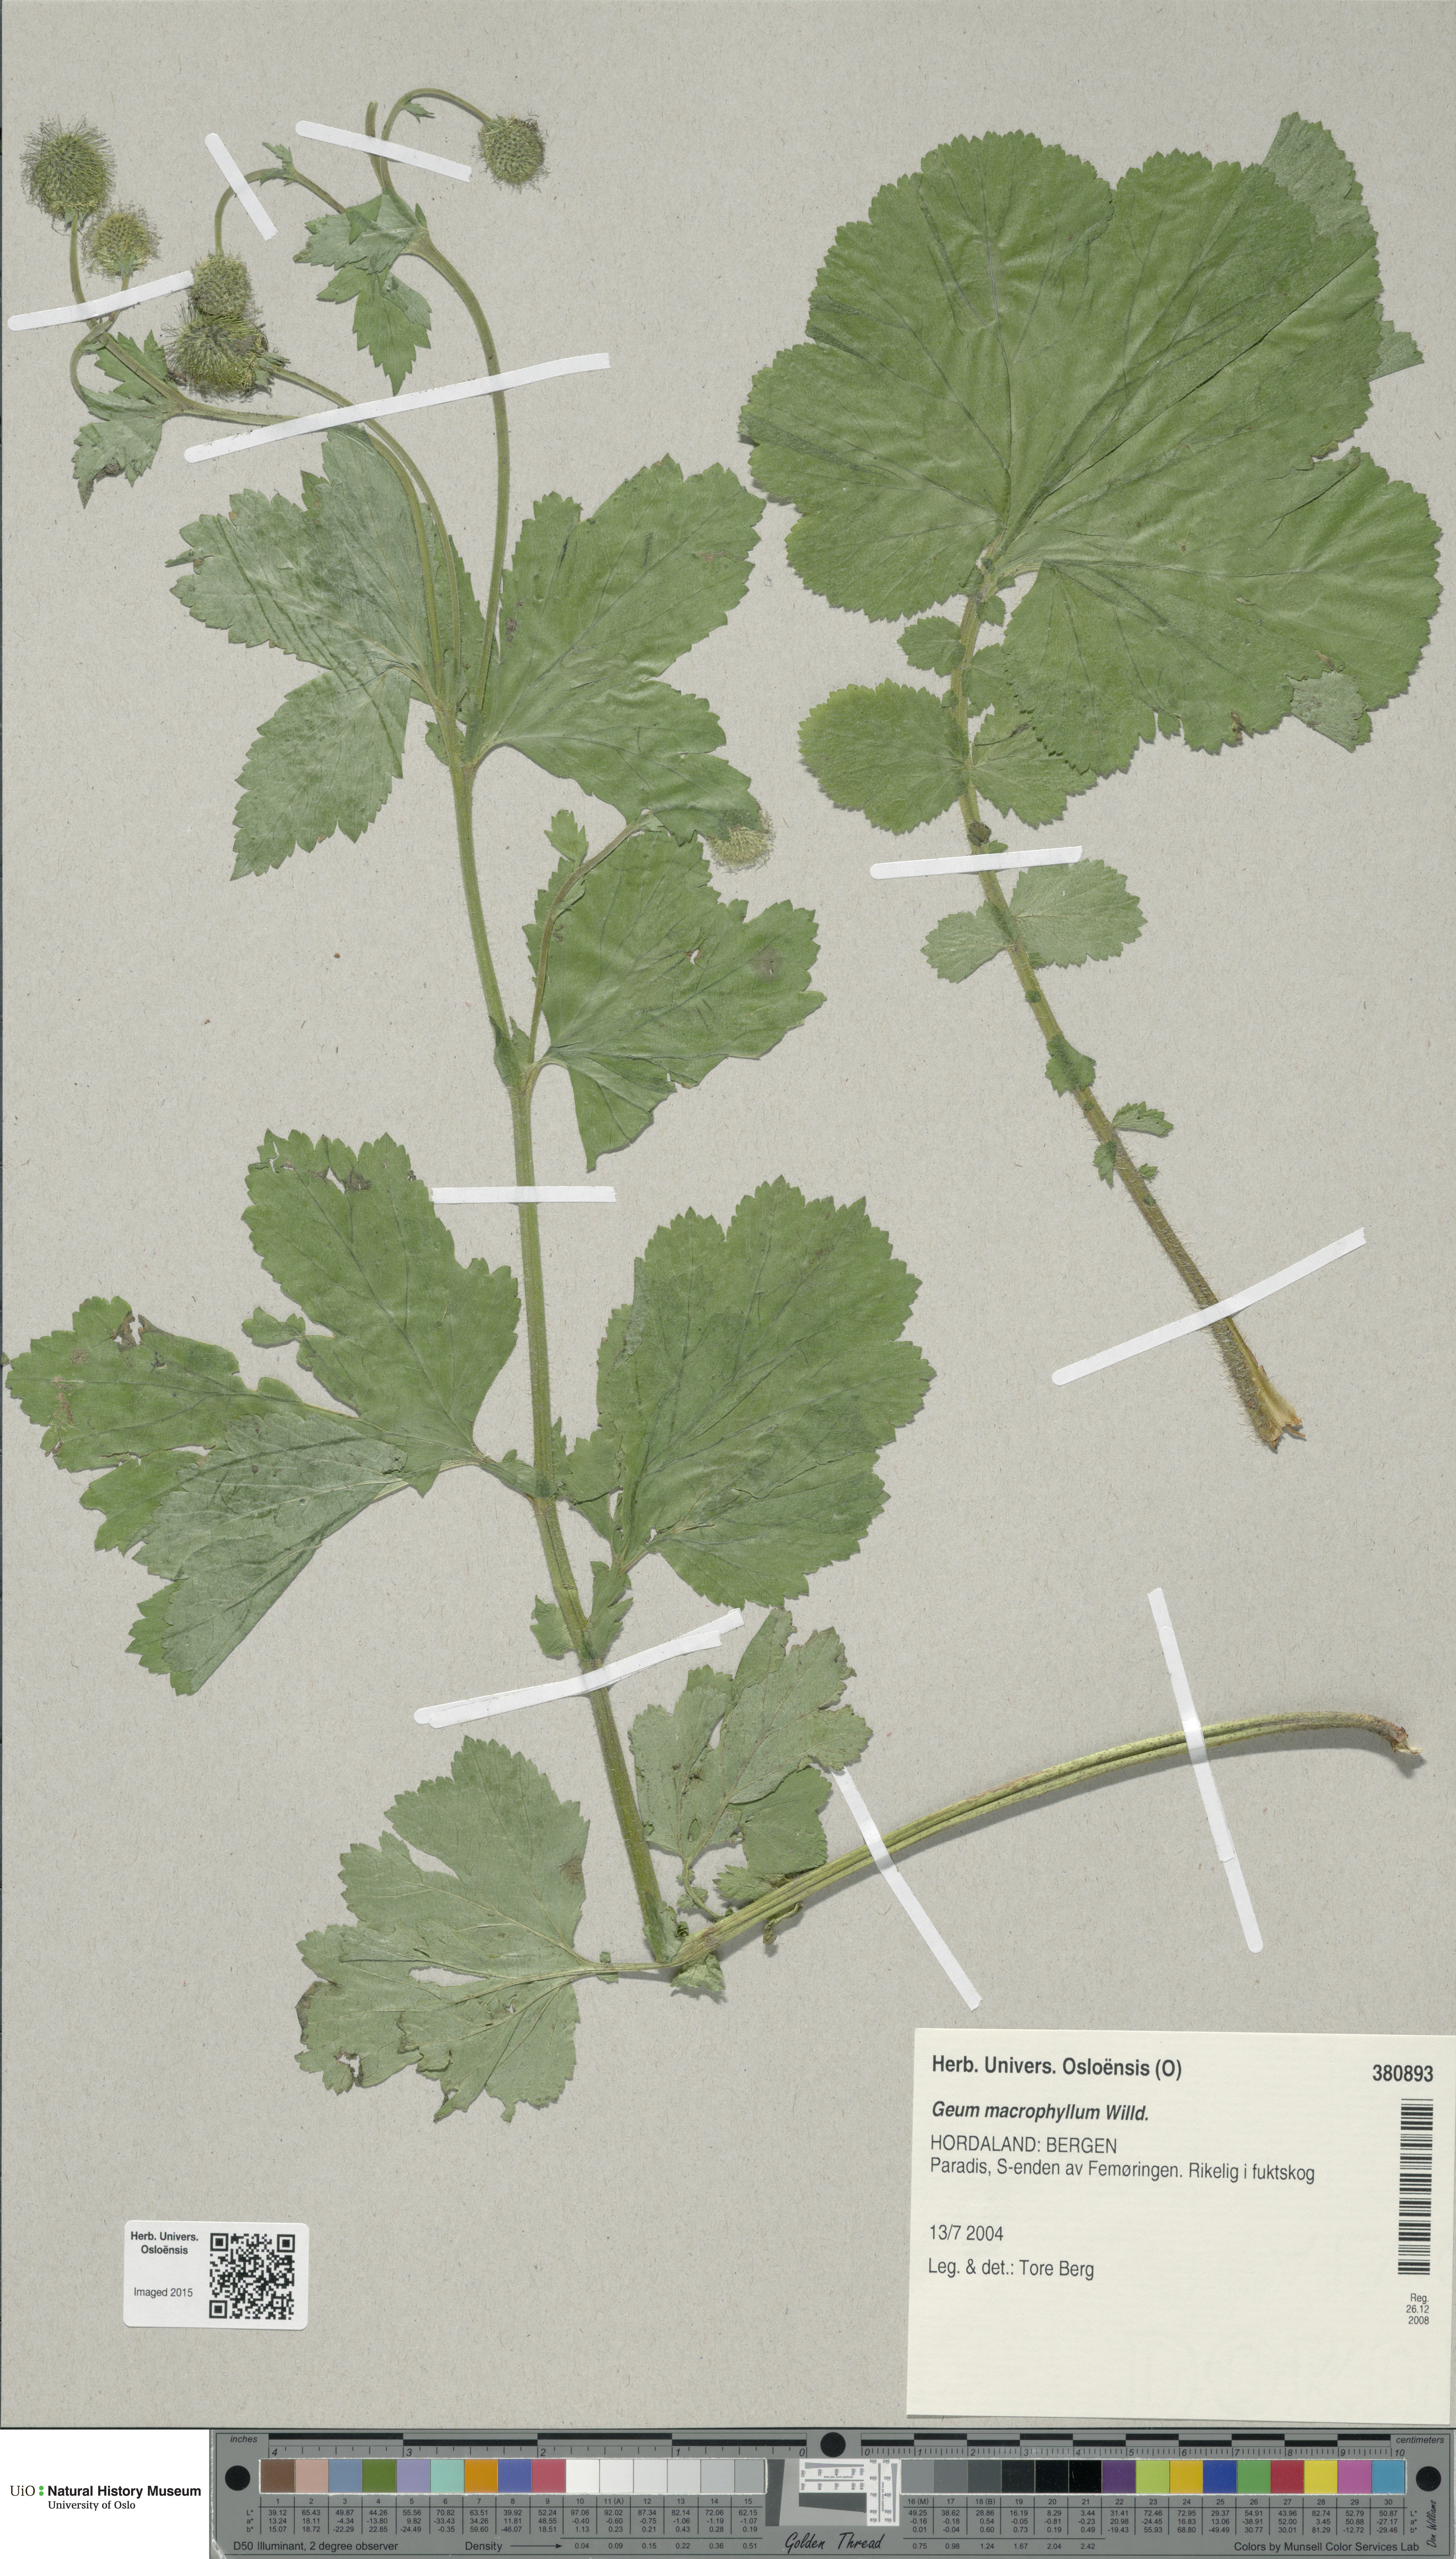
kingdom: Plantae
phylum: Tracheophyta
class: Magnoliopsida
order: Rosales
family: Rosaceae
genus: Geum
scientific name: Geum macrophyllum
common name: Large-leaved avens
